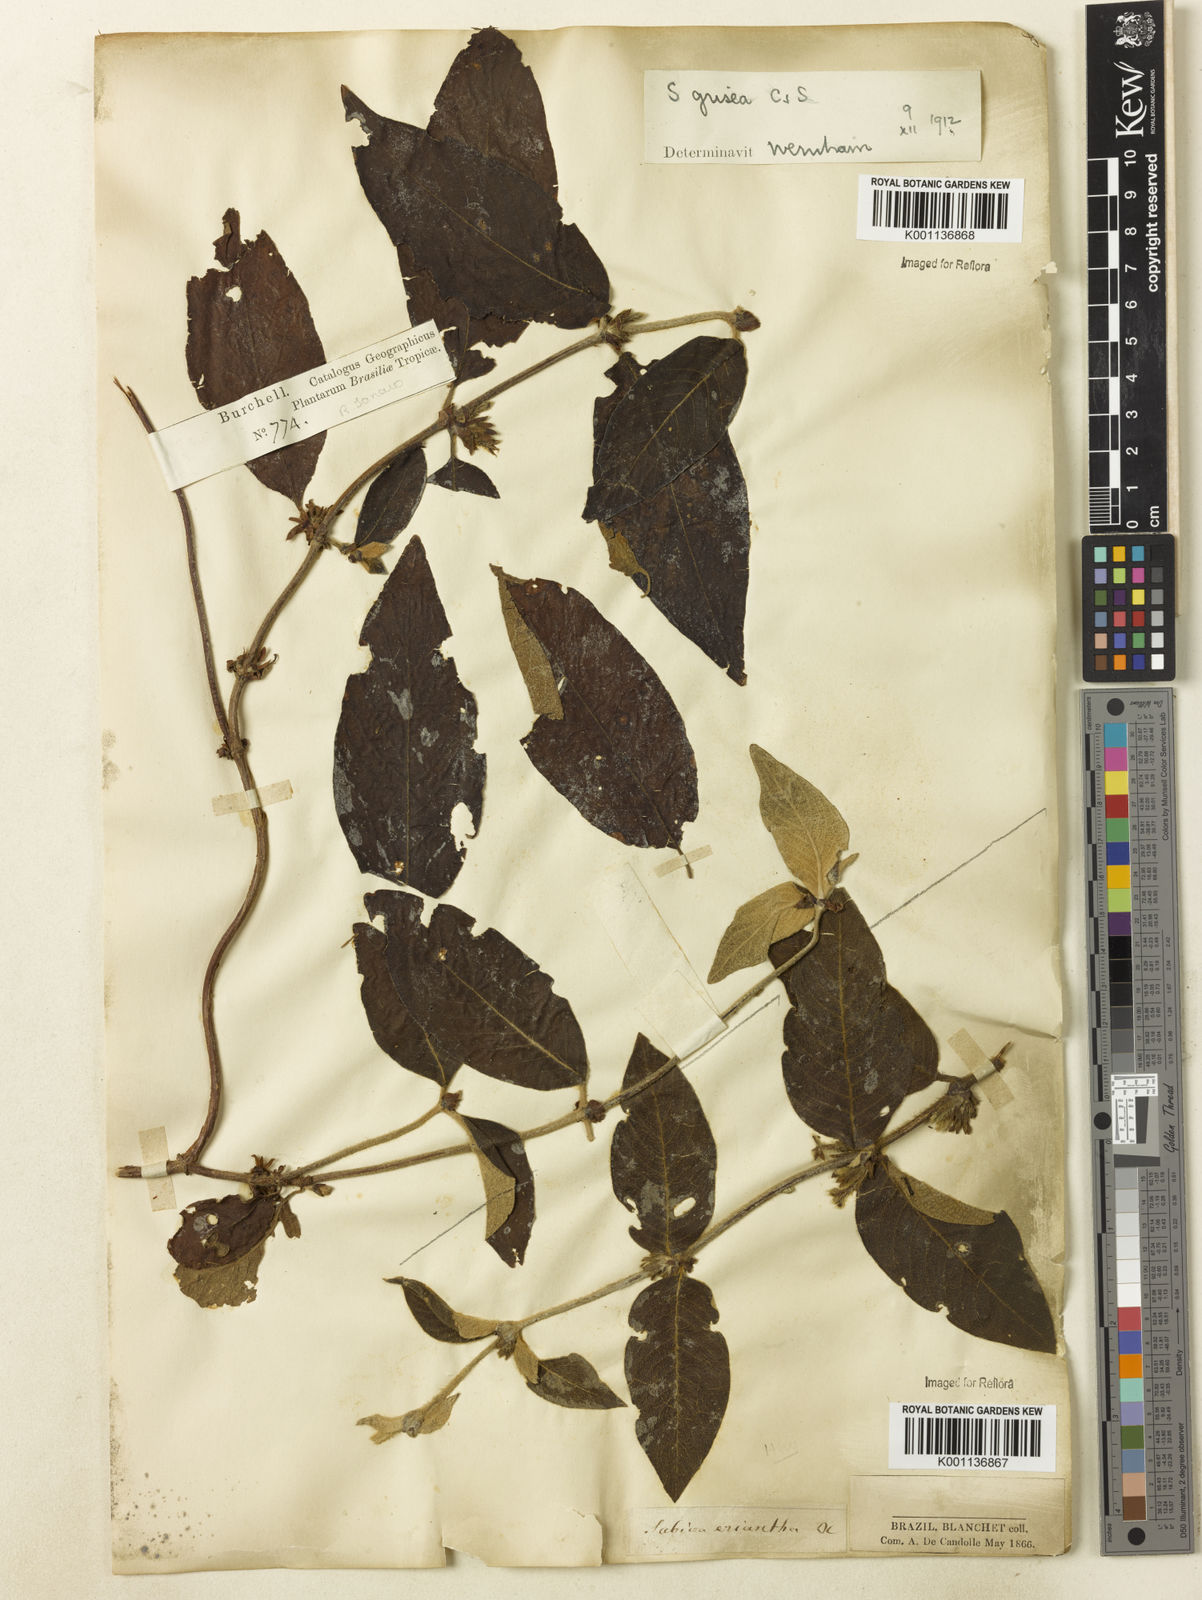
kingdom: Plantae
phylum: Tracheophyta
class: Magnoliopsida
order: Gentianales
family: Rubiaceae
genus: Sabicea
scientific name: Sabicea grisea
